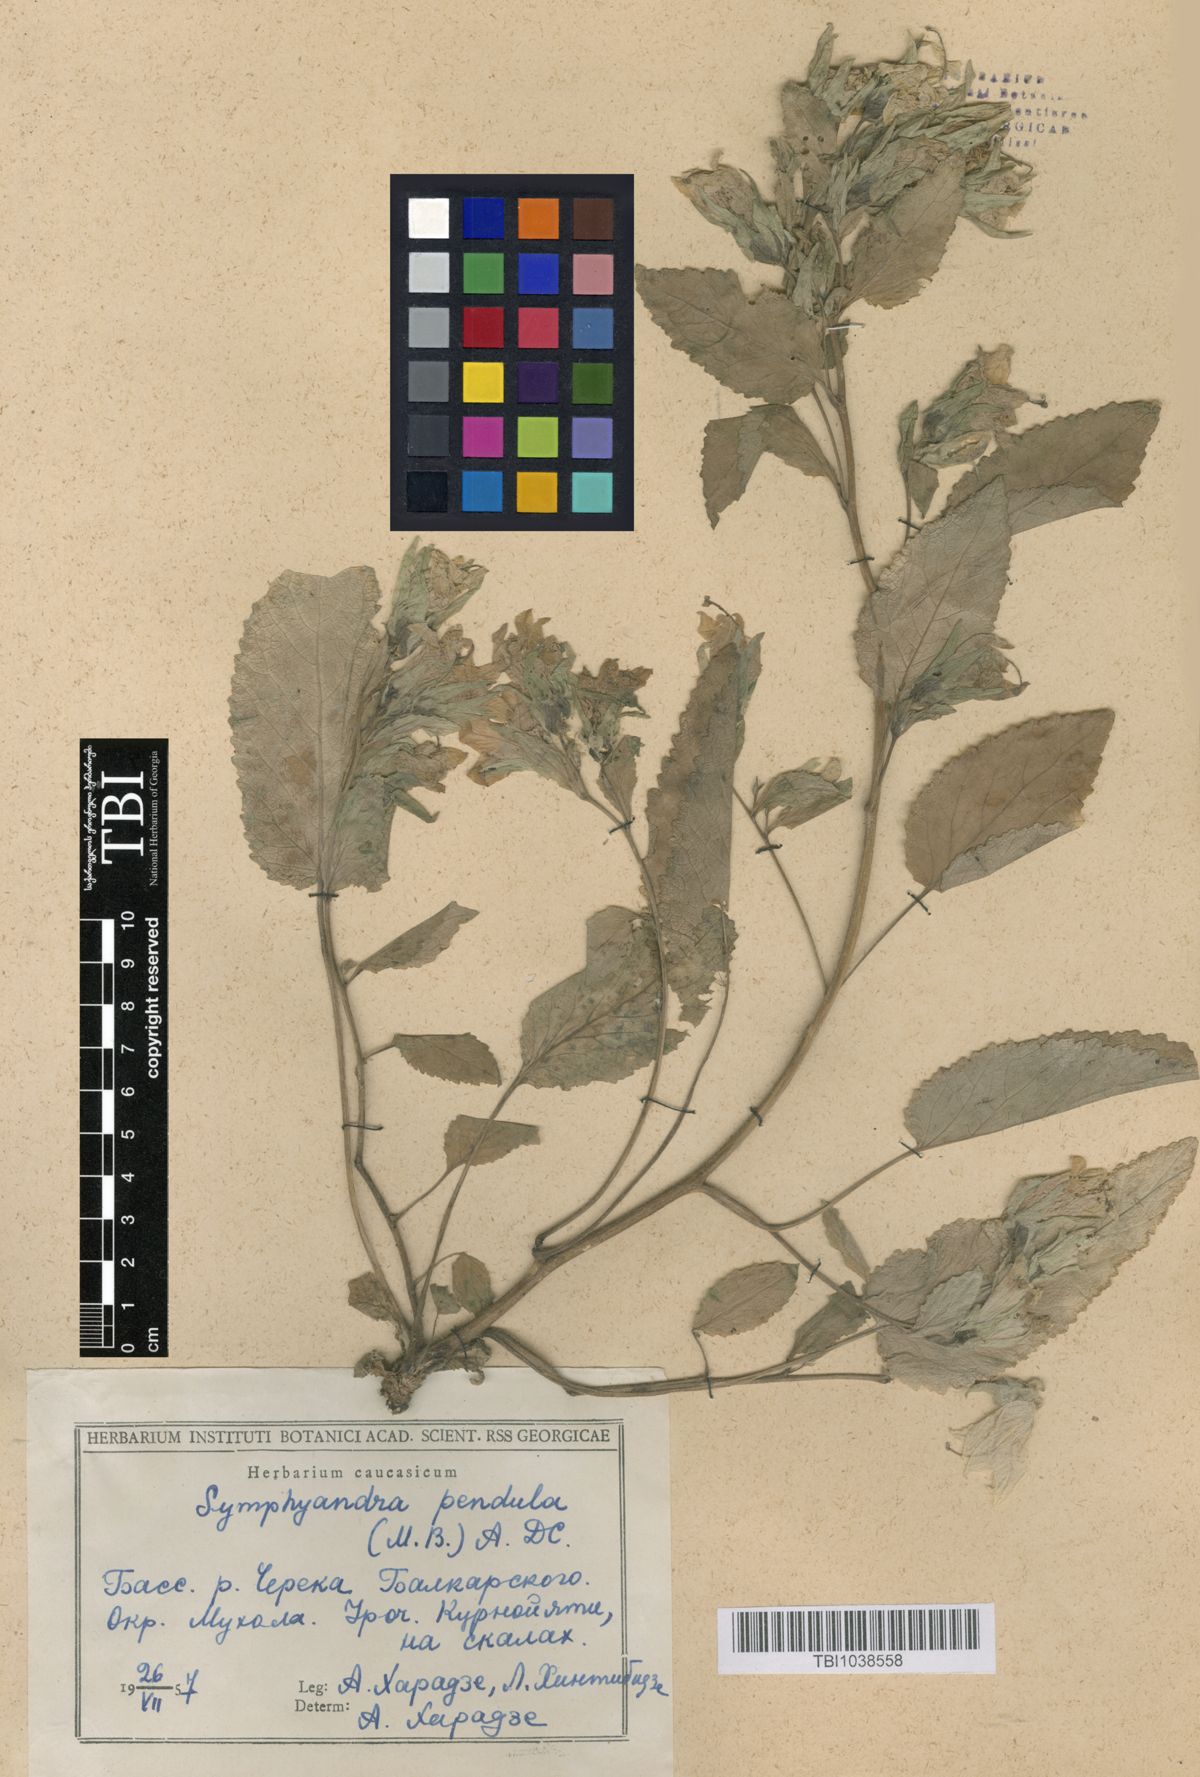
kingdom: Plantae
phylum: Tracheophyta
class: Magnoliopsida
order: Asterales
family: Campanulaceae
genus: Campanula
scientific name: Campanula pendula
